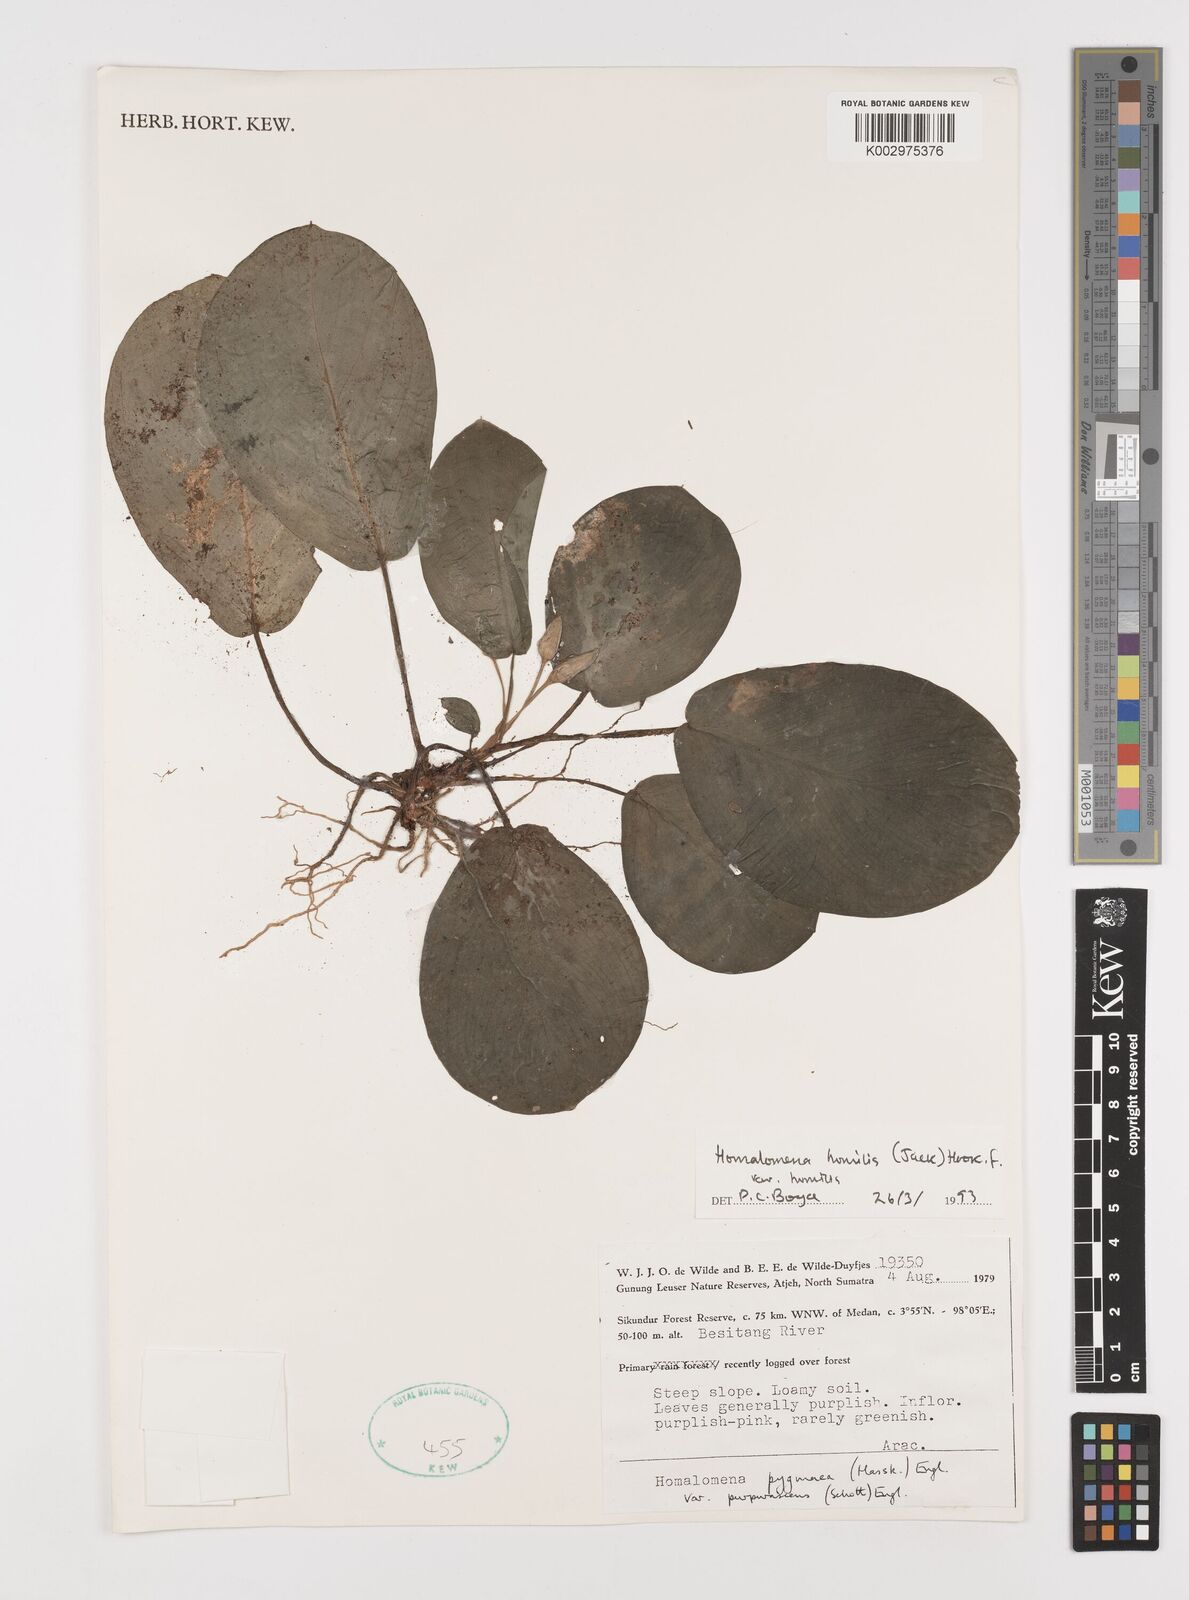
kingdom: Plantae
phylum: Tracheophyta
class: Liliopsida
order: Alismatales
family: Araceae
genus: Homalomena
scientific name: Homalomena humilis
